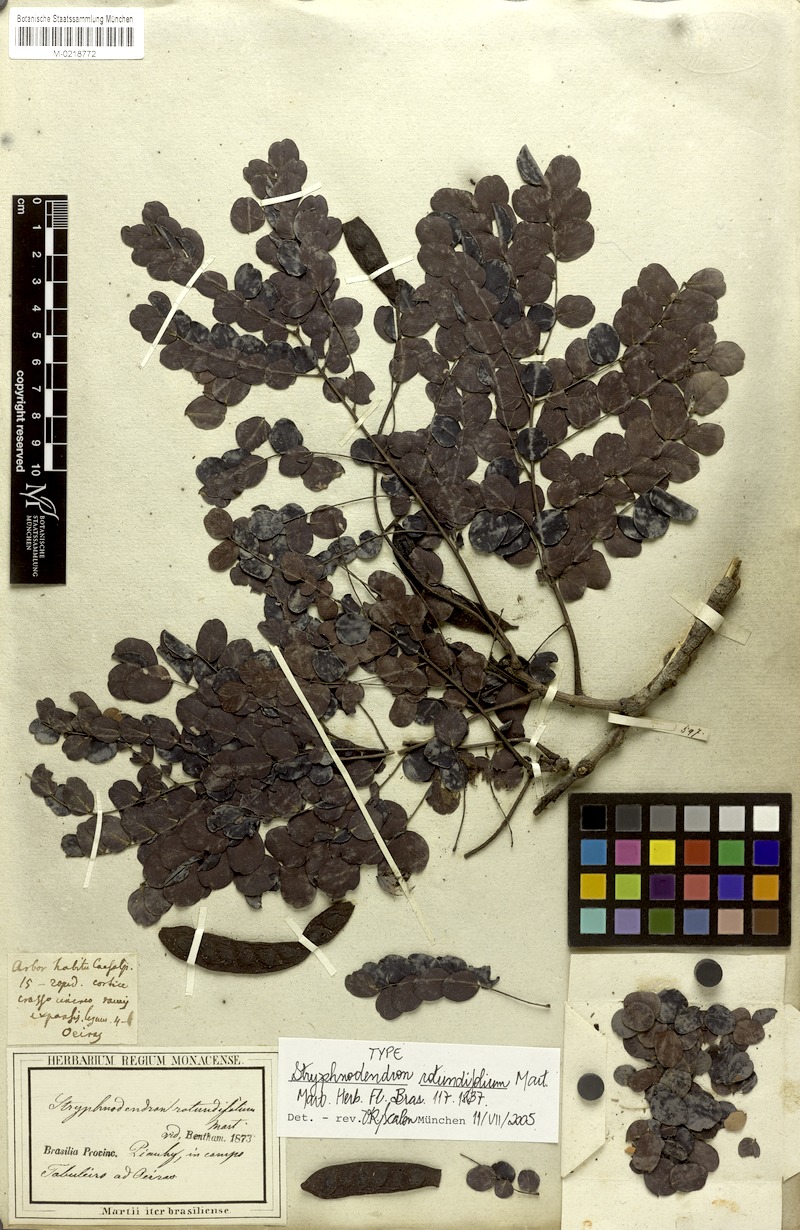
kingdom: Plantae
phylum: Tracheophyta
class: Magnoliopsida
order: Fabales
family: Fabaceae
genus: Stryphnodendron
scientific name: Stryphnodendron rotundifolium
